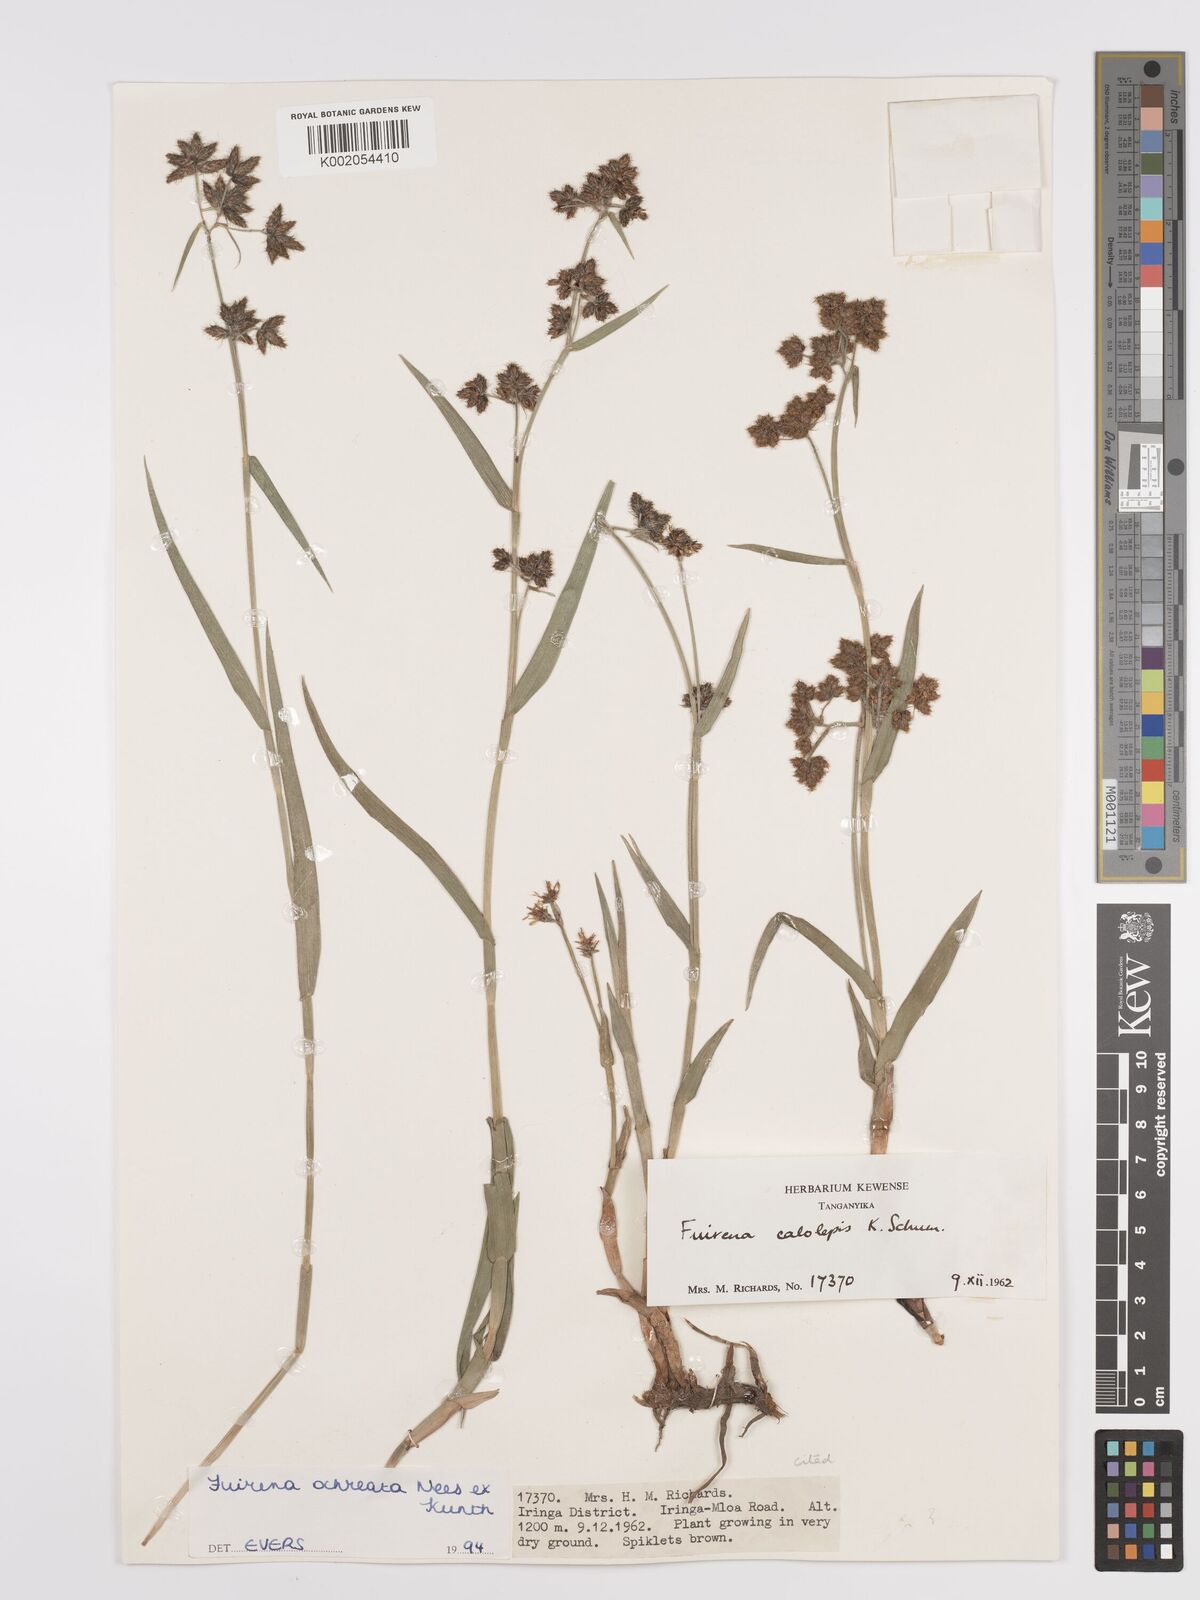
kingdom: Plantae
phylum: Tracheophyta
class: Liliopsida
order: Poales
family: Cyperaceae
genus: Fuirena
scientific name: Fuirena ochreata
